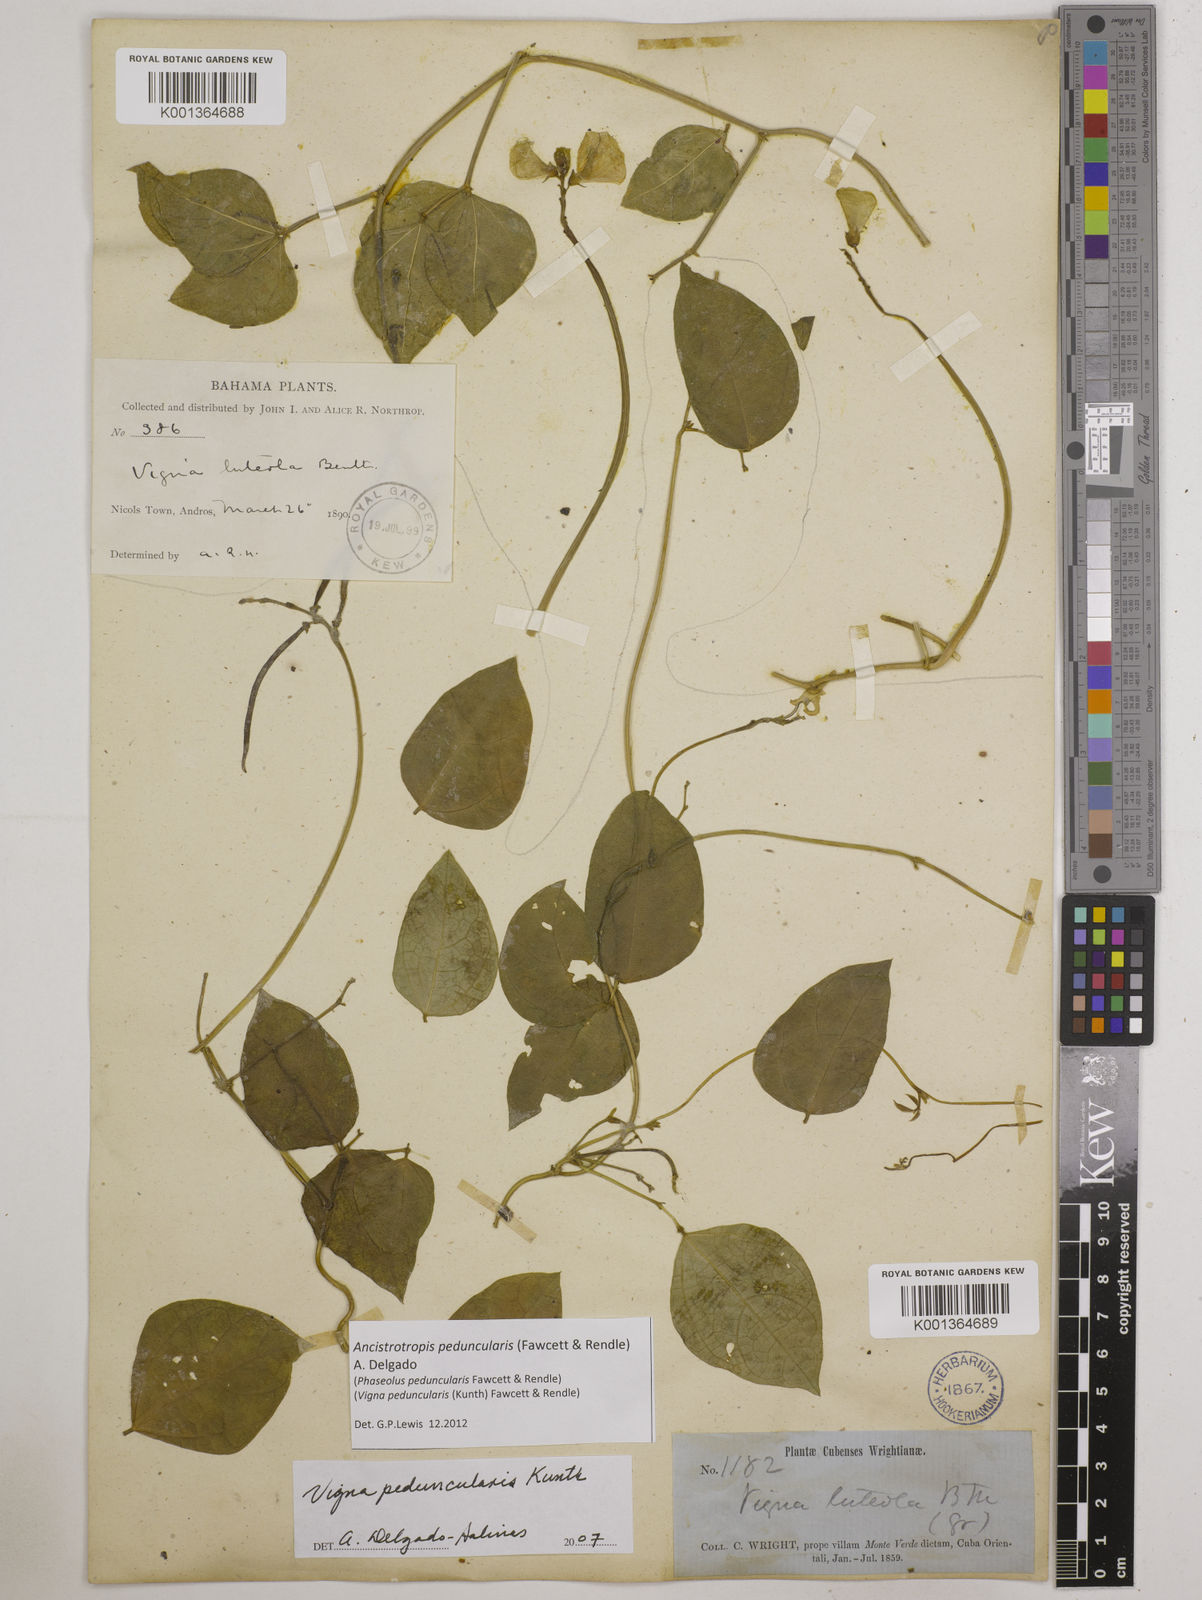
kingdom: Plantae
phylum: Tracheophyta
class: Magnoliopsida
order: Fabales
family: Fabaceae
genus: Ancistrotropis
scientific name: Ancistrotropis peduncularis
